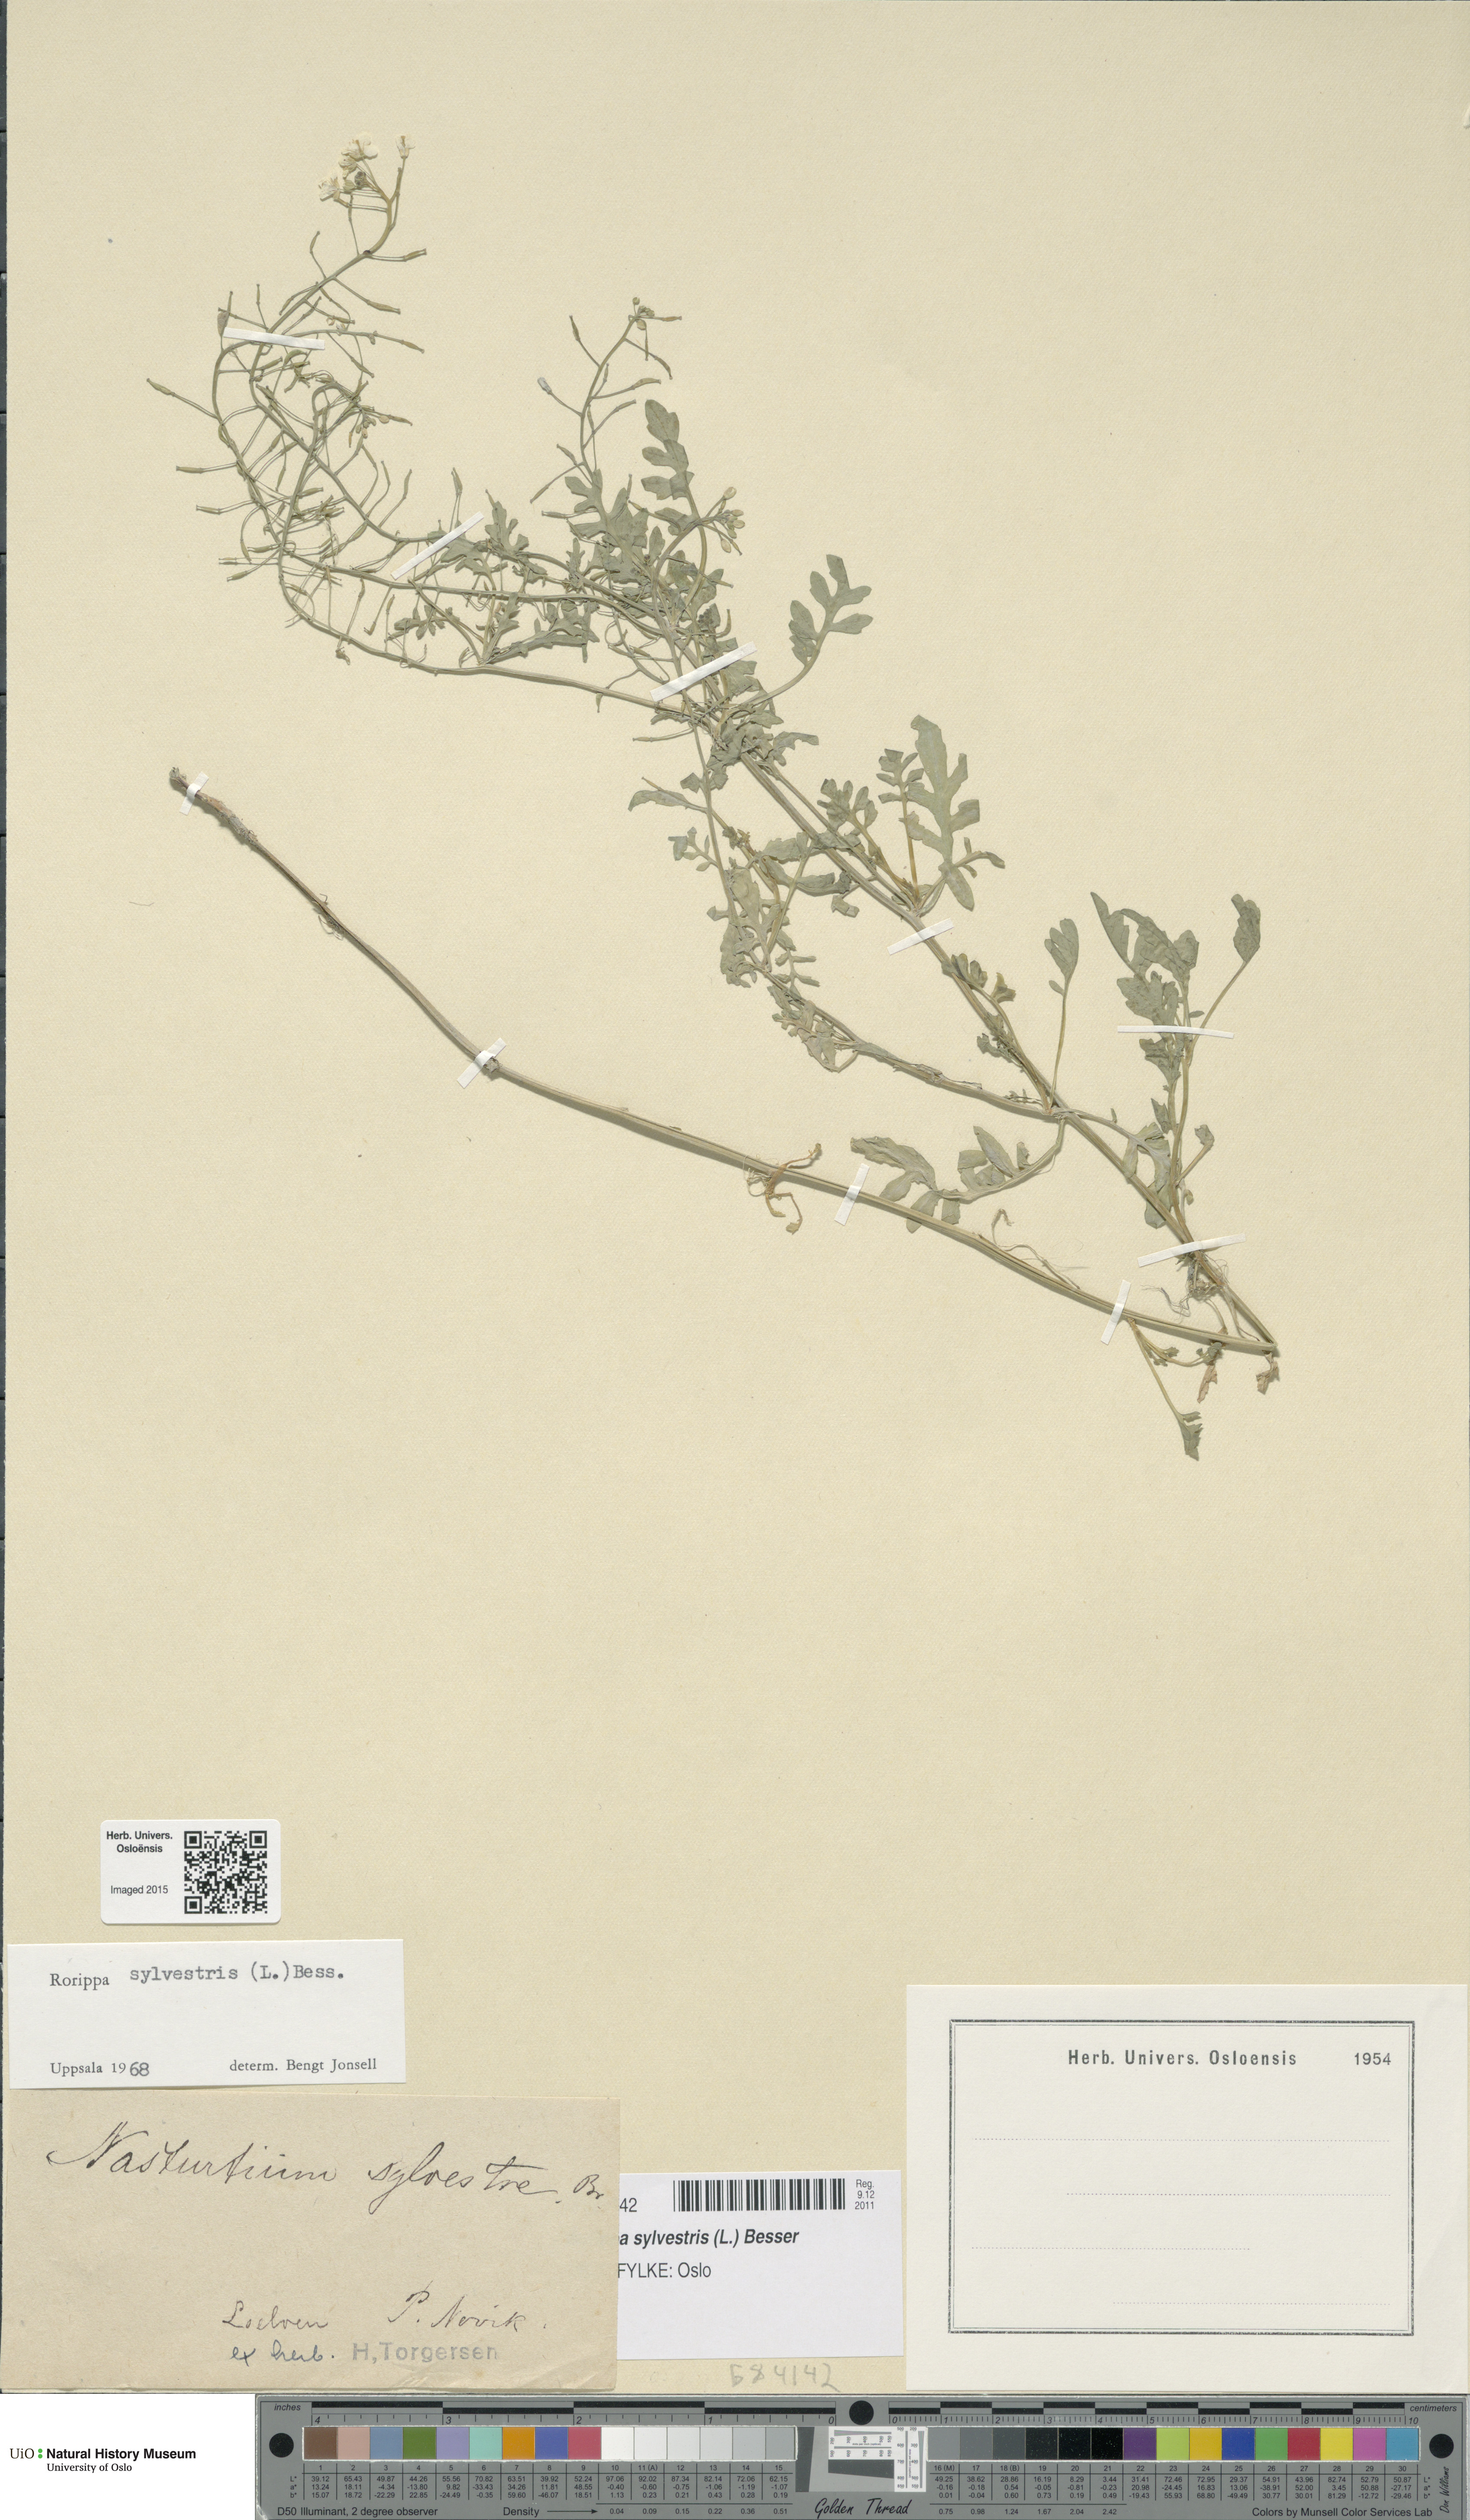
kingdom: Plantae
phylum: Tracheophyta
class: Magnoliopsida
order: Brassicales
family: Brassicaceae
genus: Rorippa
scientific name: Rorippa sylvestris
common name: Creeping yellowcress
